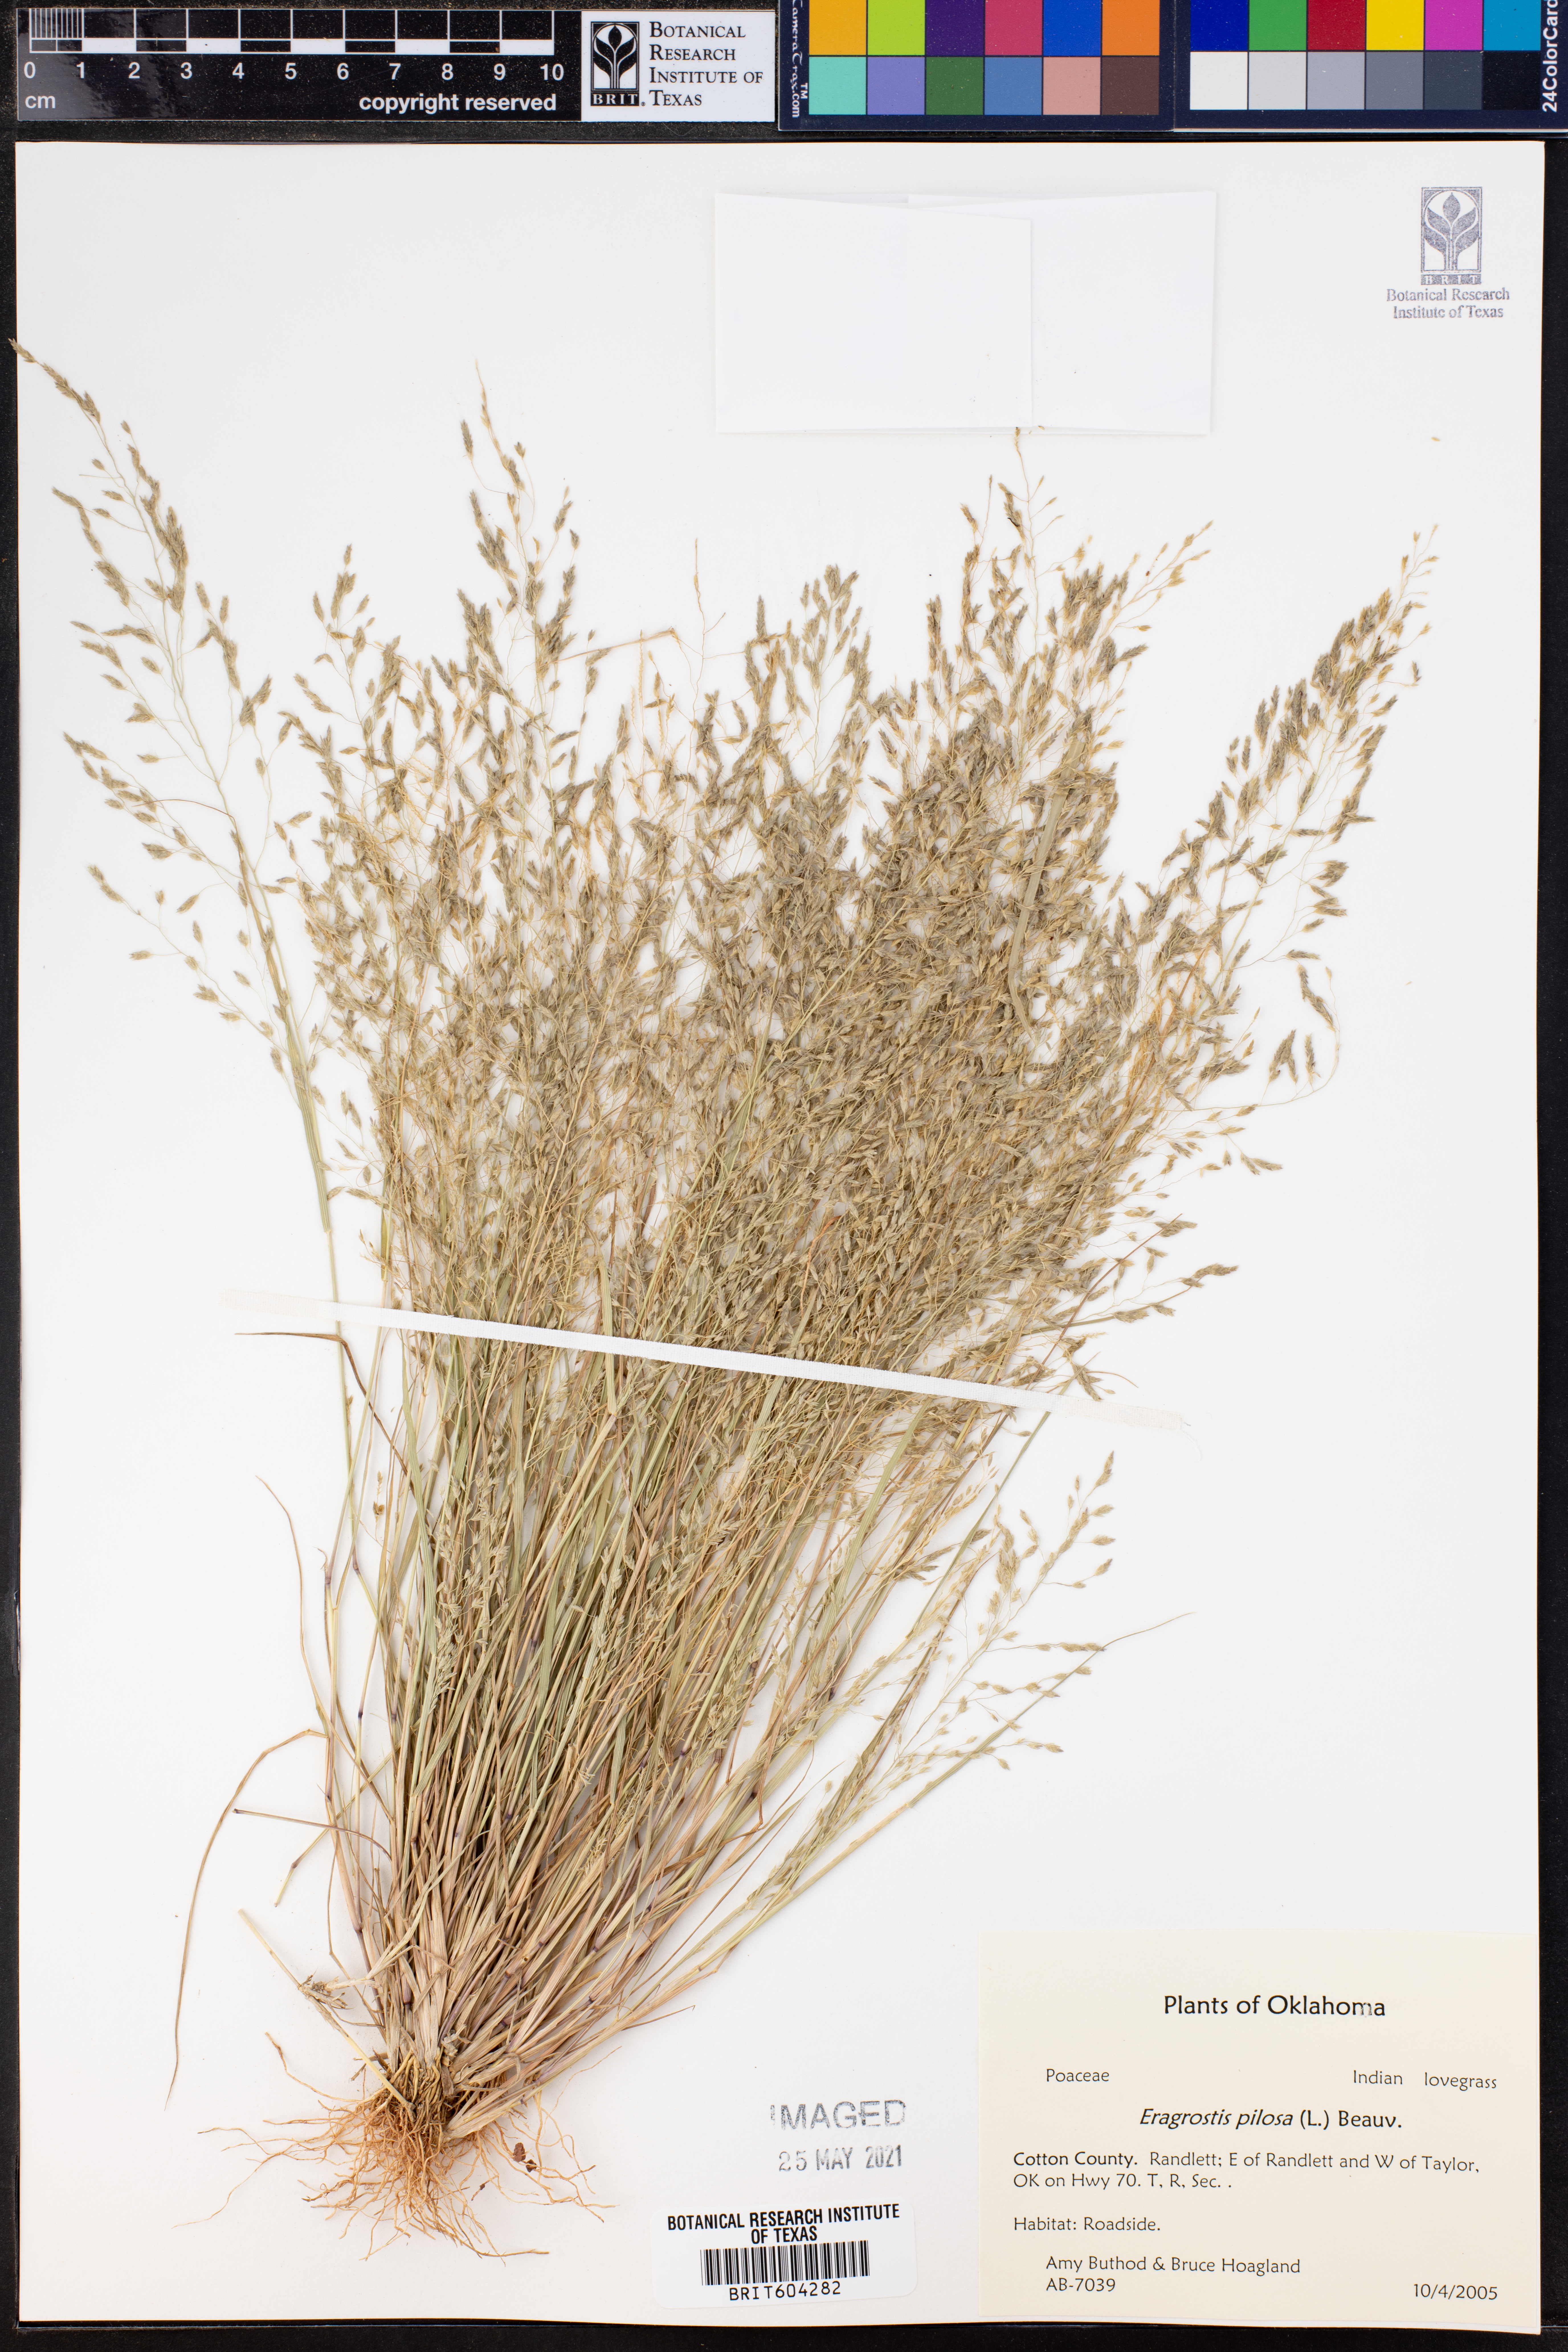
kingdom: Plantae
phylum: Tracheophyta
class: Liliopsida
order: Poales
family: Poaceae
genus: Eragrostis
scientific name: Eragrostis pilosa
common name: Indian lovegrass
